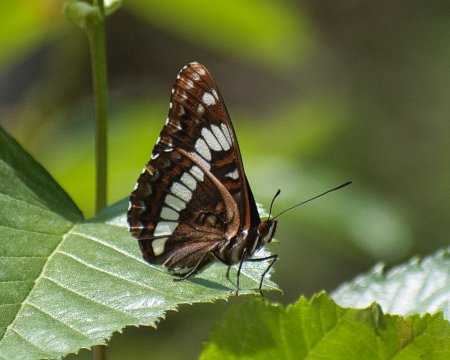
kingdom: Animalia
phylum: Arthropoda
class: Insecta
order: Lepidoptera
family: Nymphalidae
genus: Limenitis
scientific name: Limenitis lorquini
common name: Lorquin's Admiral
